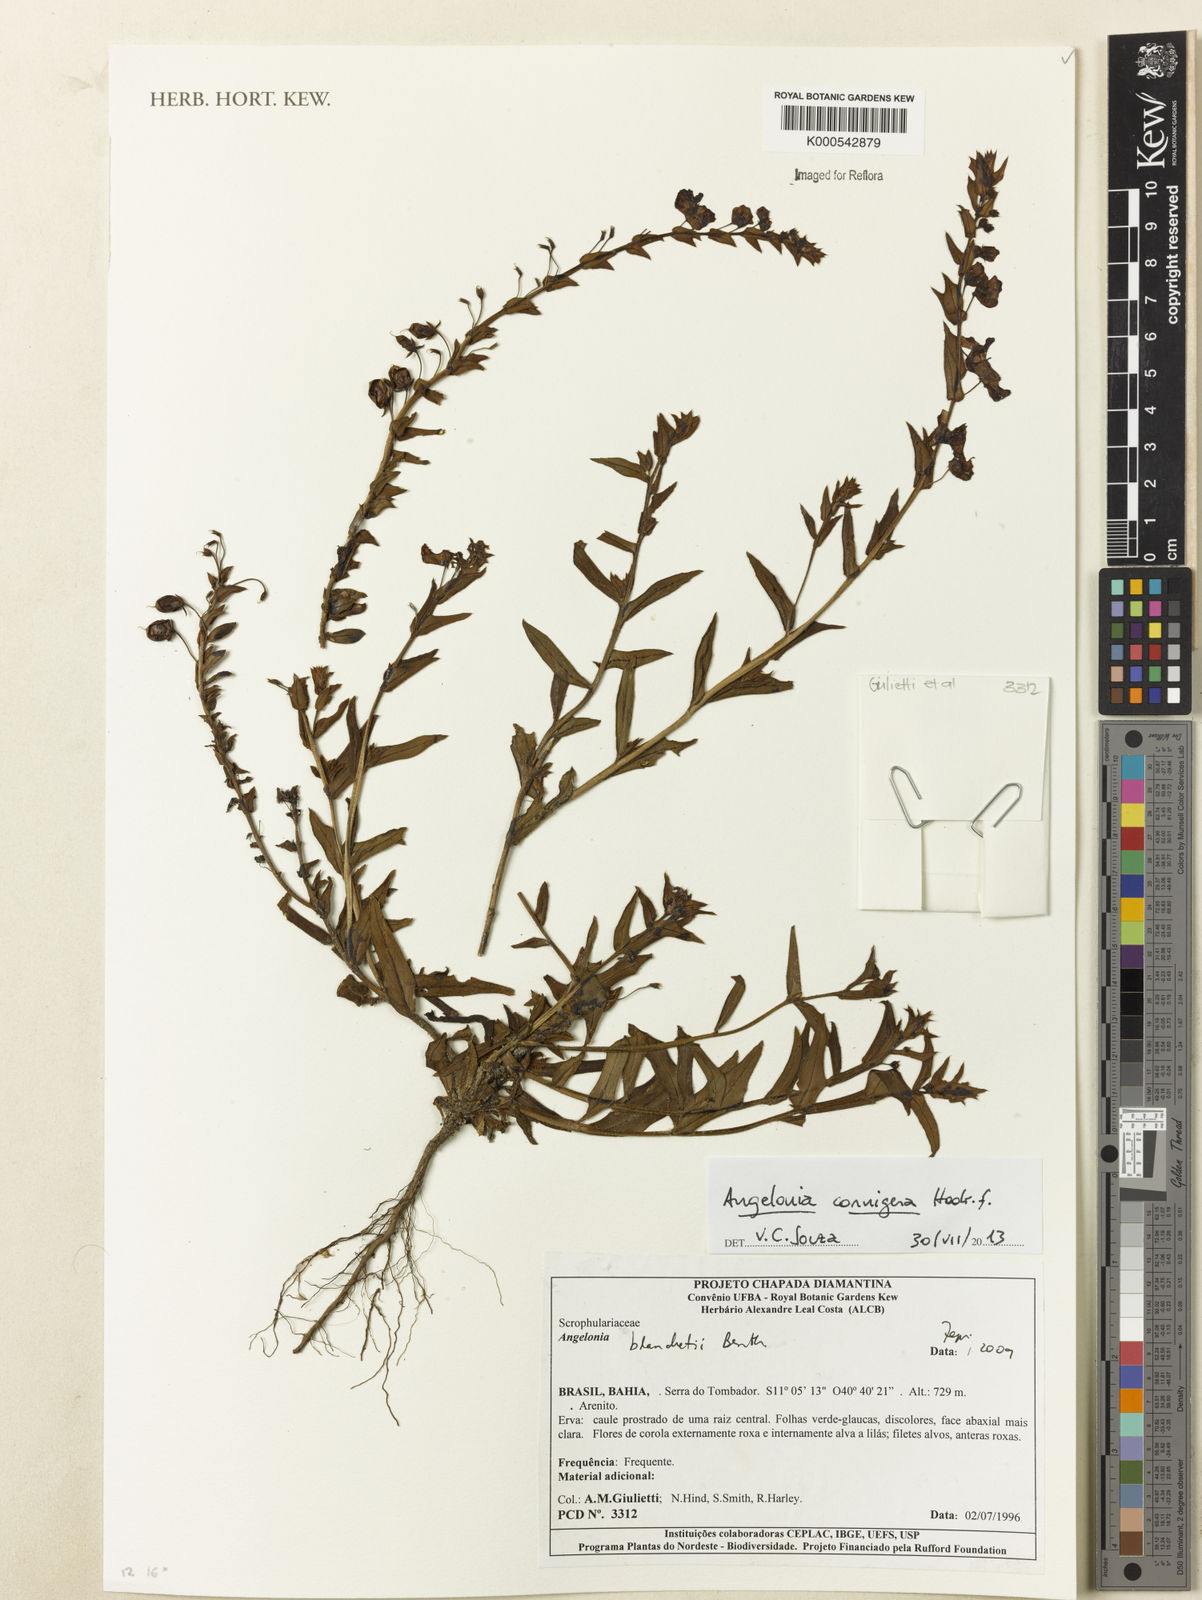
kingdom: Plantae
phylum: Tracheophyta
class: Magnoliopsida
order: Lamiales
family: Plantaginaceae
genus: Angelonia
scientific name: Angelonia cornigera
